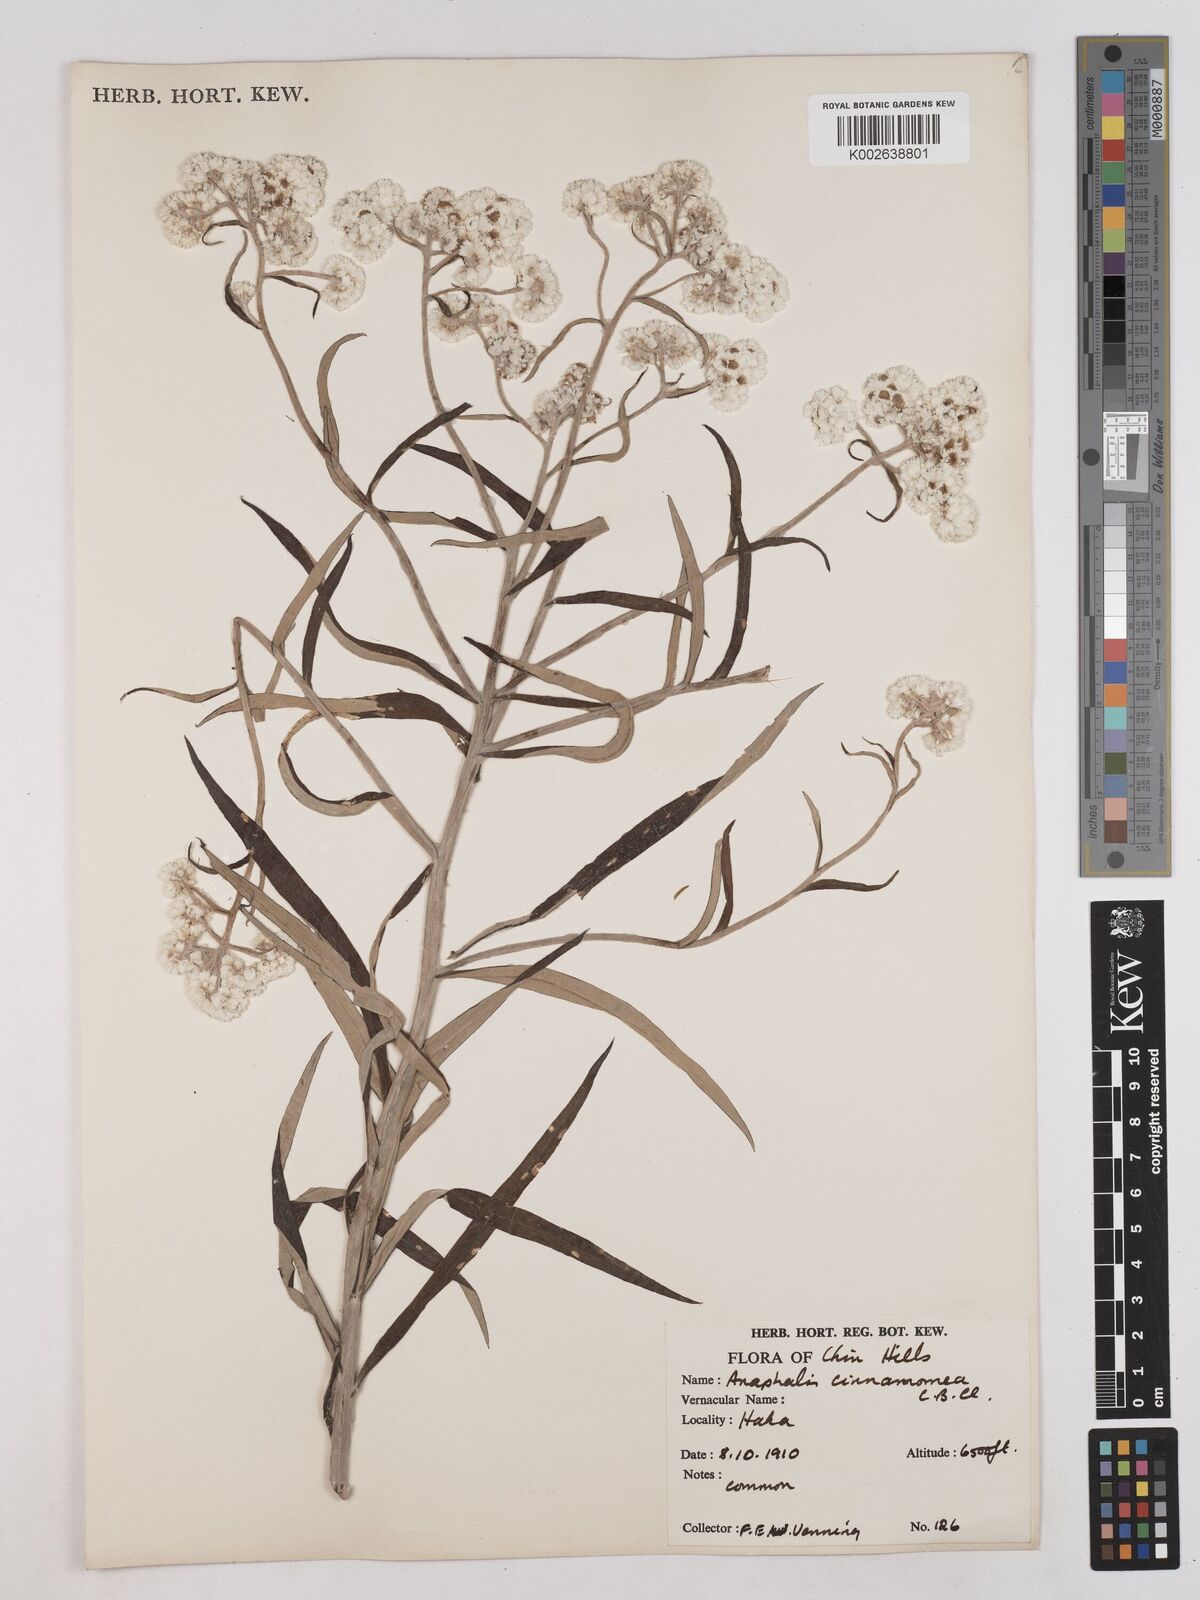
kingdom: Plantae
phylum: Tracheophyta
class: Magnoliopsida
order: Asterales
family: Asteraceae
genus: Anaphalis
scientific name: Anaphalis marcescens
